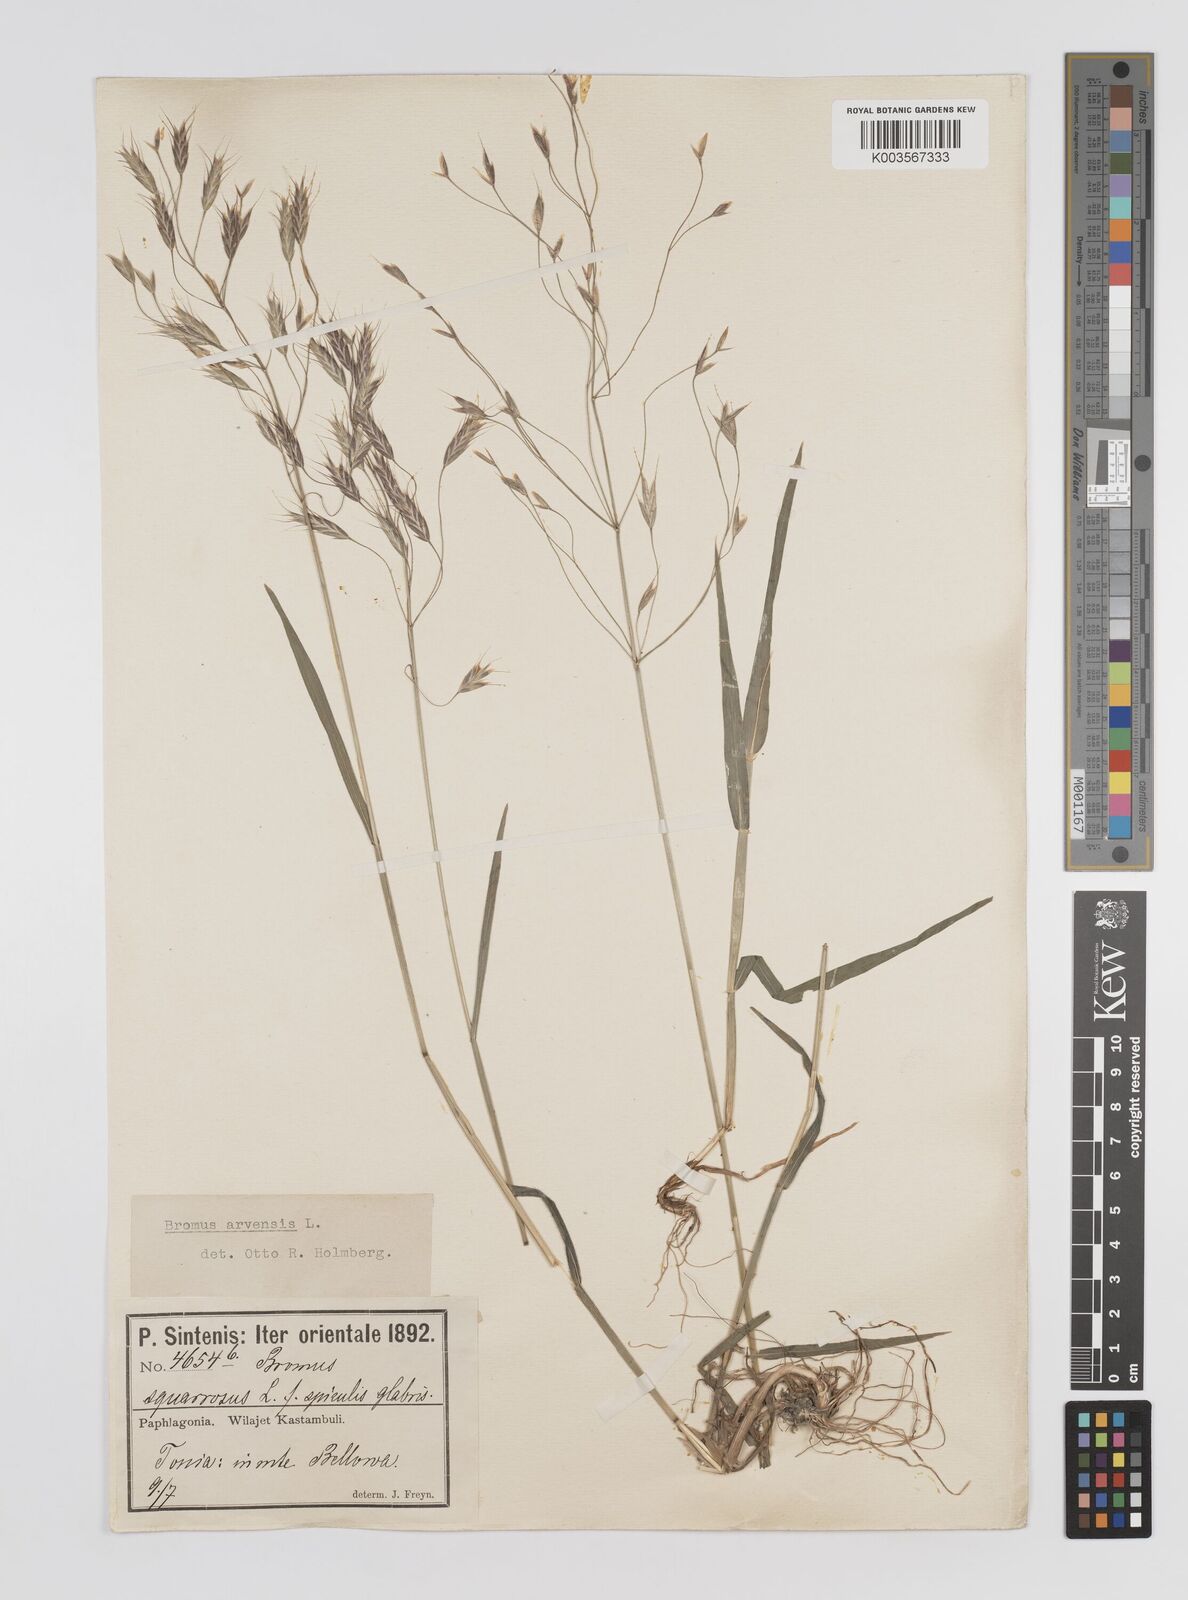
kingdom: Plantae
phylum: Tracheophyta
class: Liliopsida
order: Poales
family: Poaceae
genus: Bromus
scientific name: Bromus erectus
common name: Erect brome
